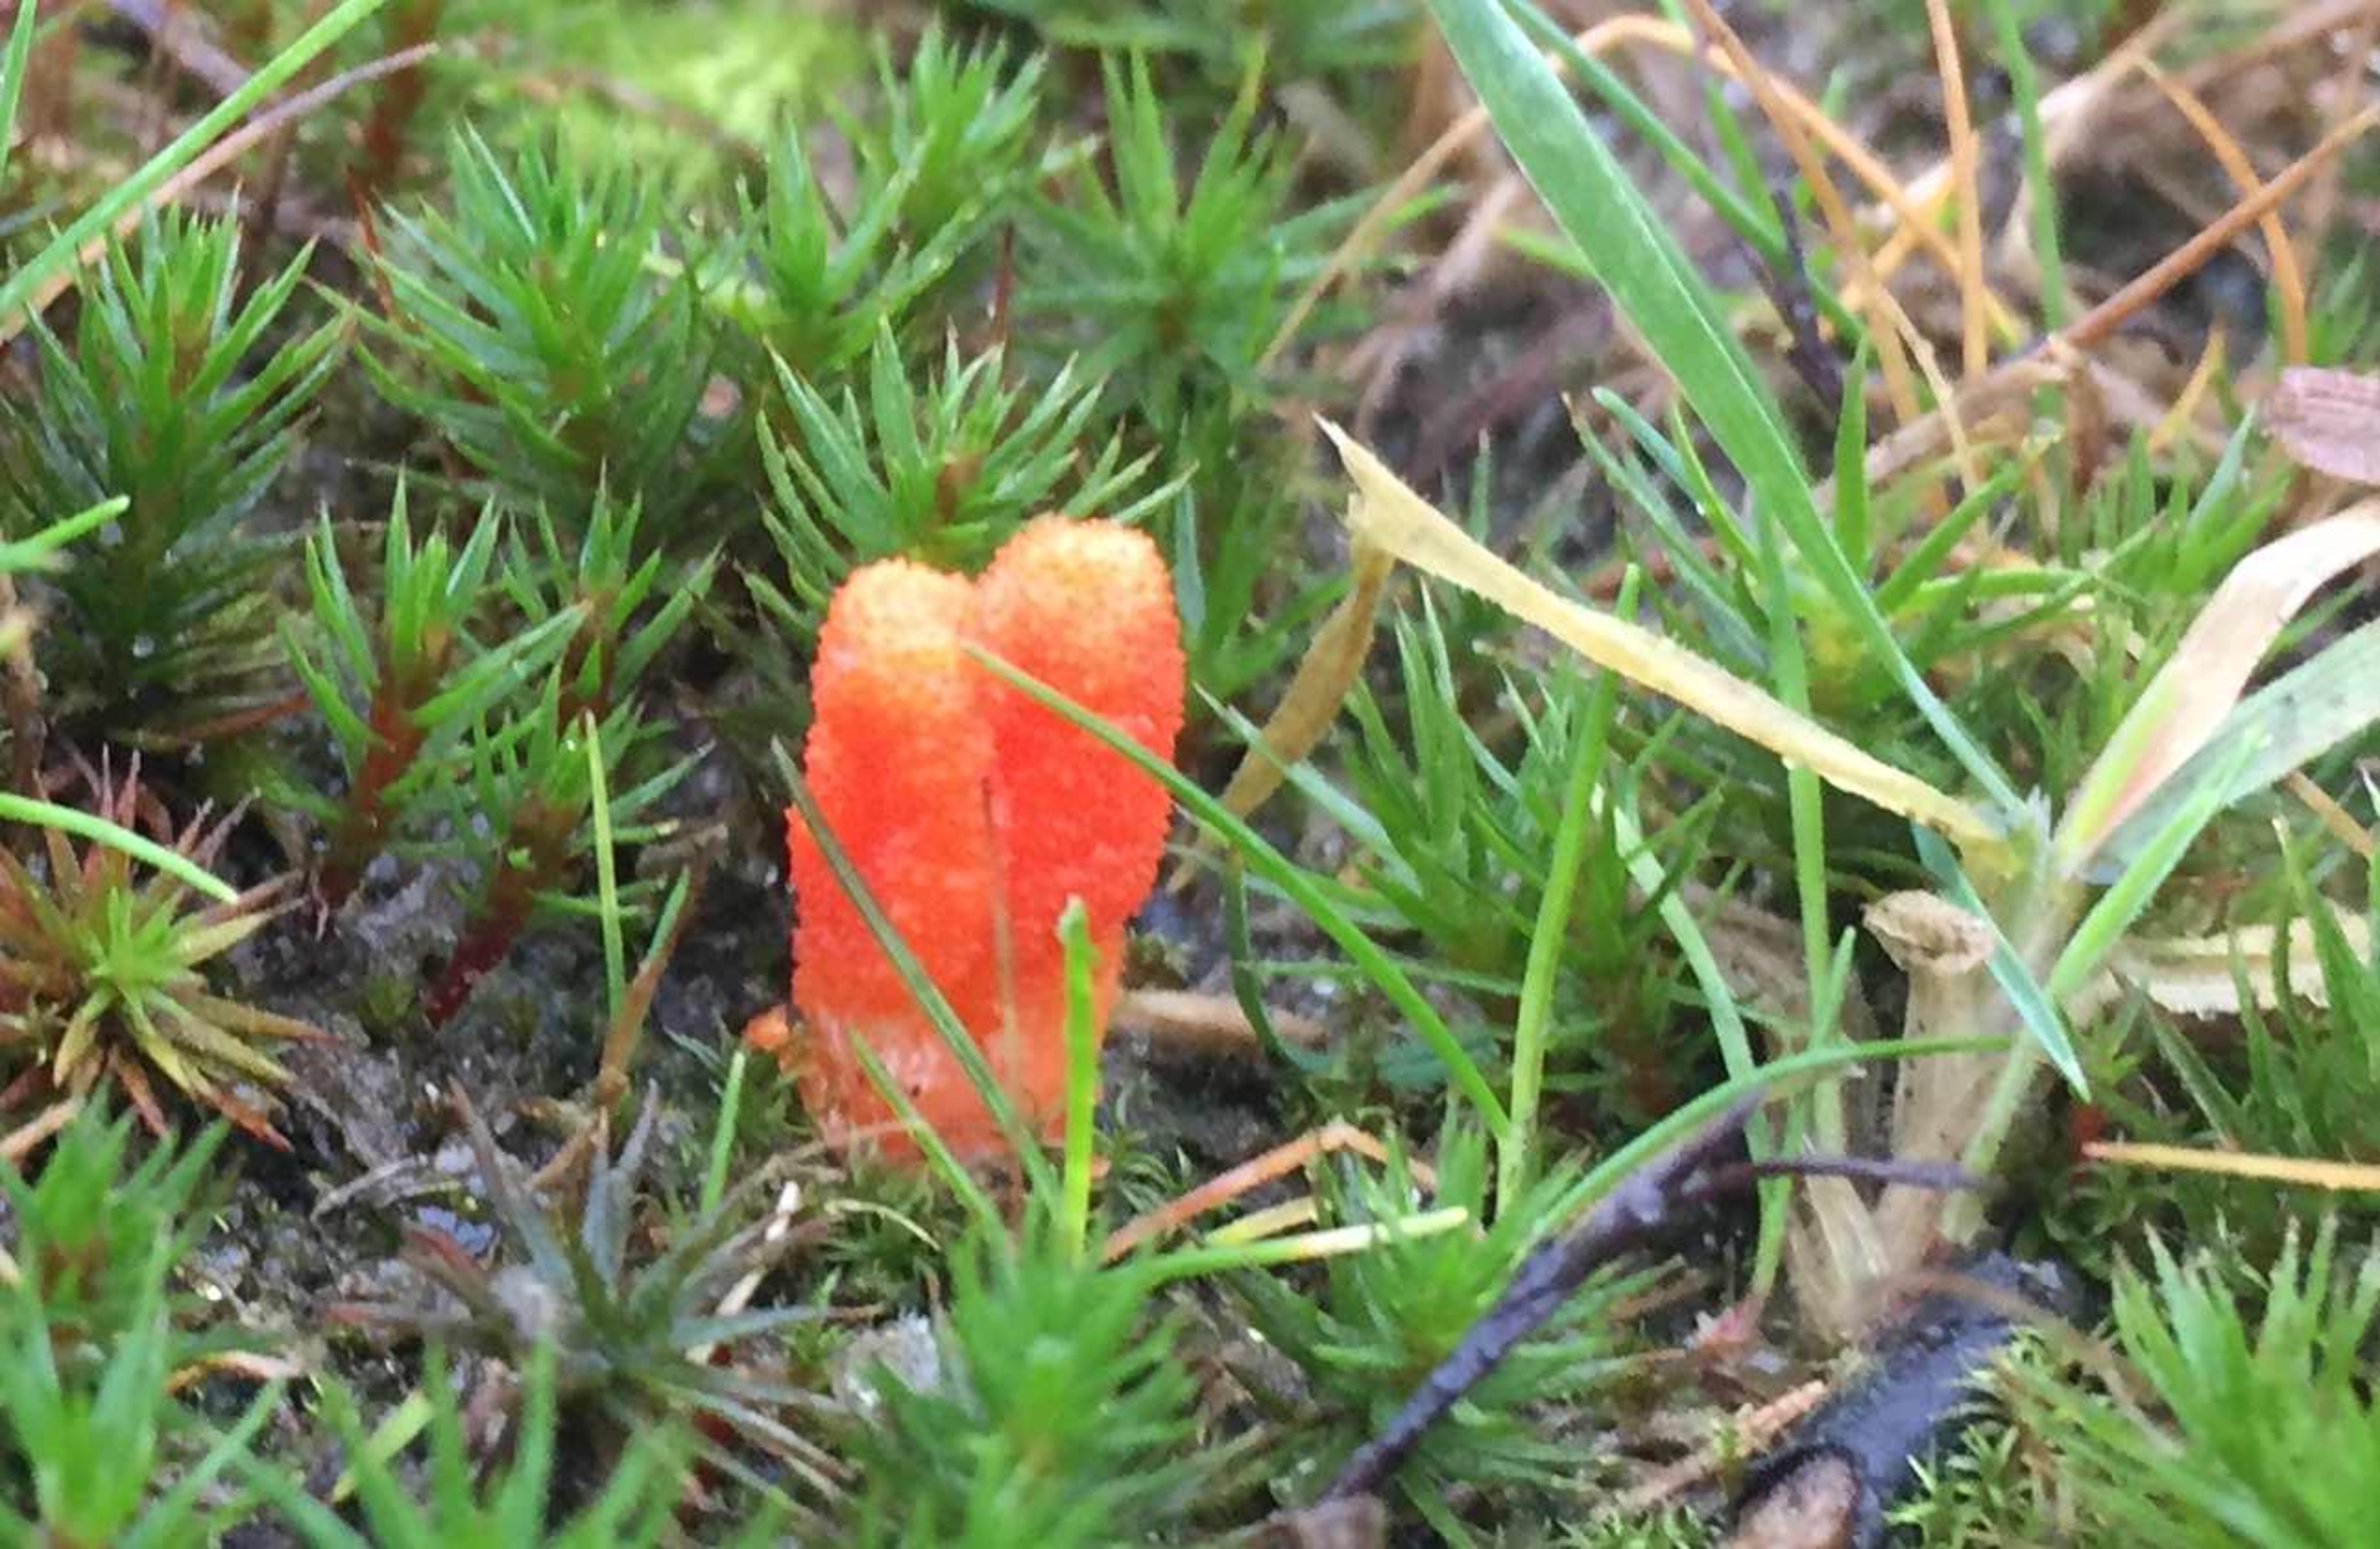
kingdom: Fungi
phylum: Ascomycota
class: Sordariomycetes
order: Hypocreales
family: Cordycipitaceae
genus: Cordyceps
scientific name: Cordyceps militaris
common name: Puppe-snyltekølle
